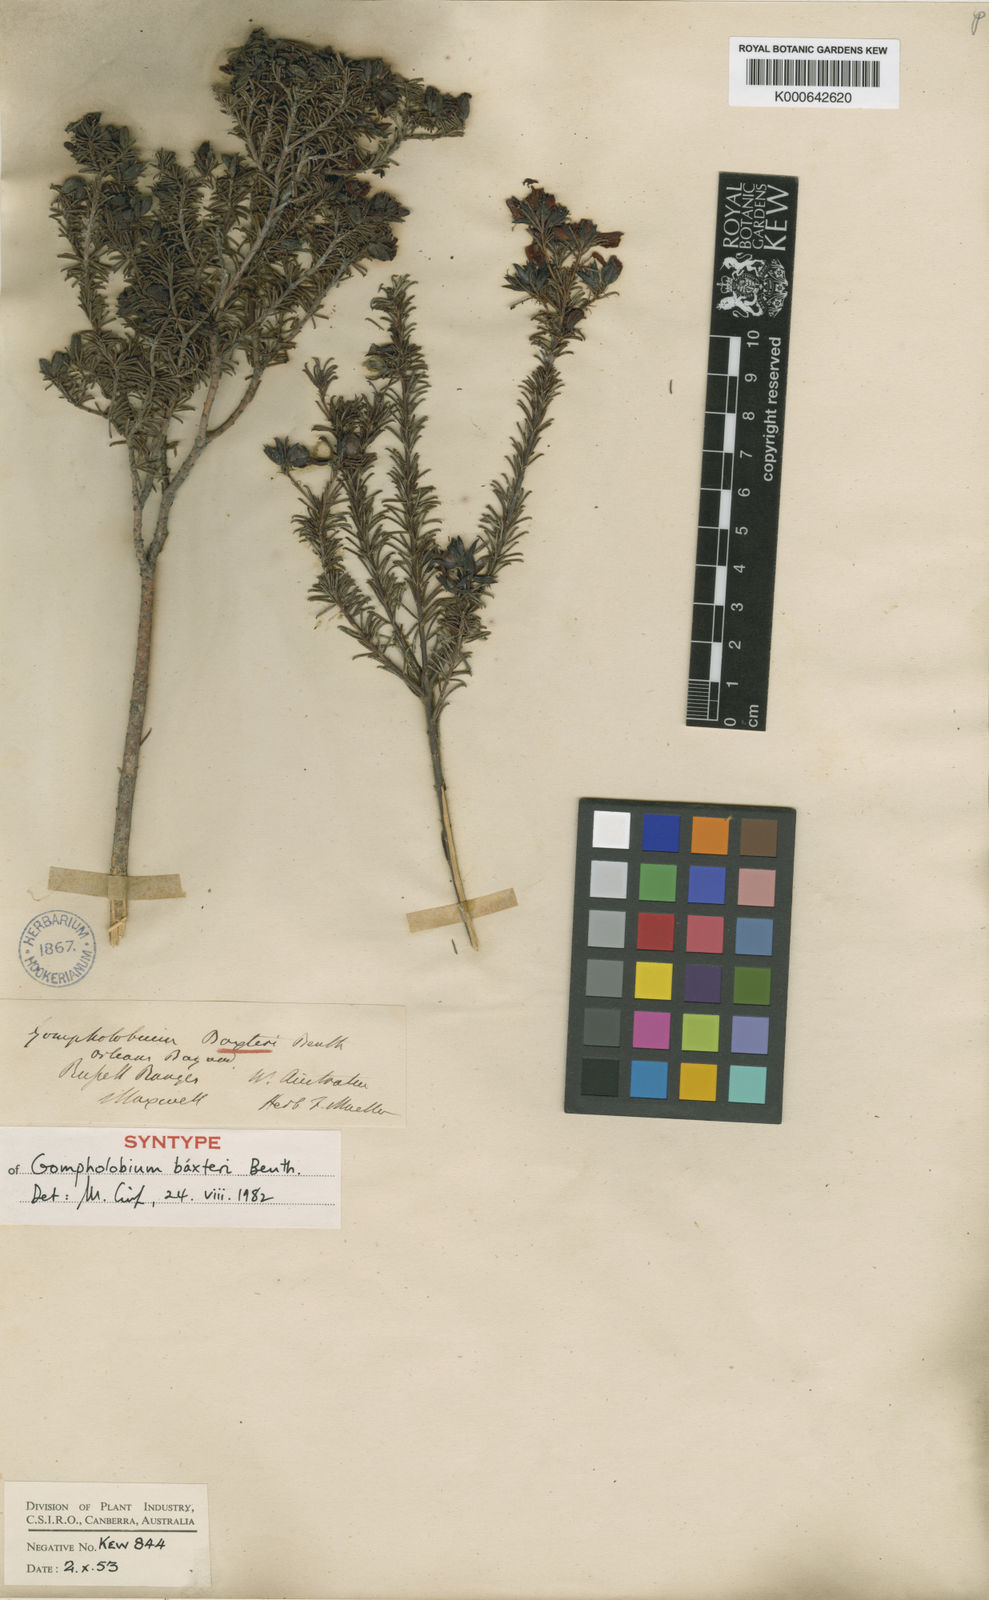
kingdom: Plantae
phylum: Tracheophyta
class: Magnoliopsida
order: Fabales
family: Fabaceae
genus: Gompholobium
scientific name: Gompholobium baxteri
